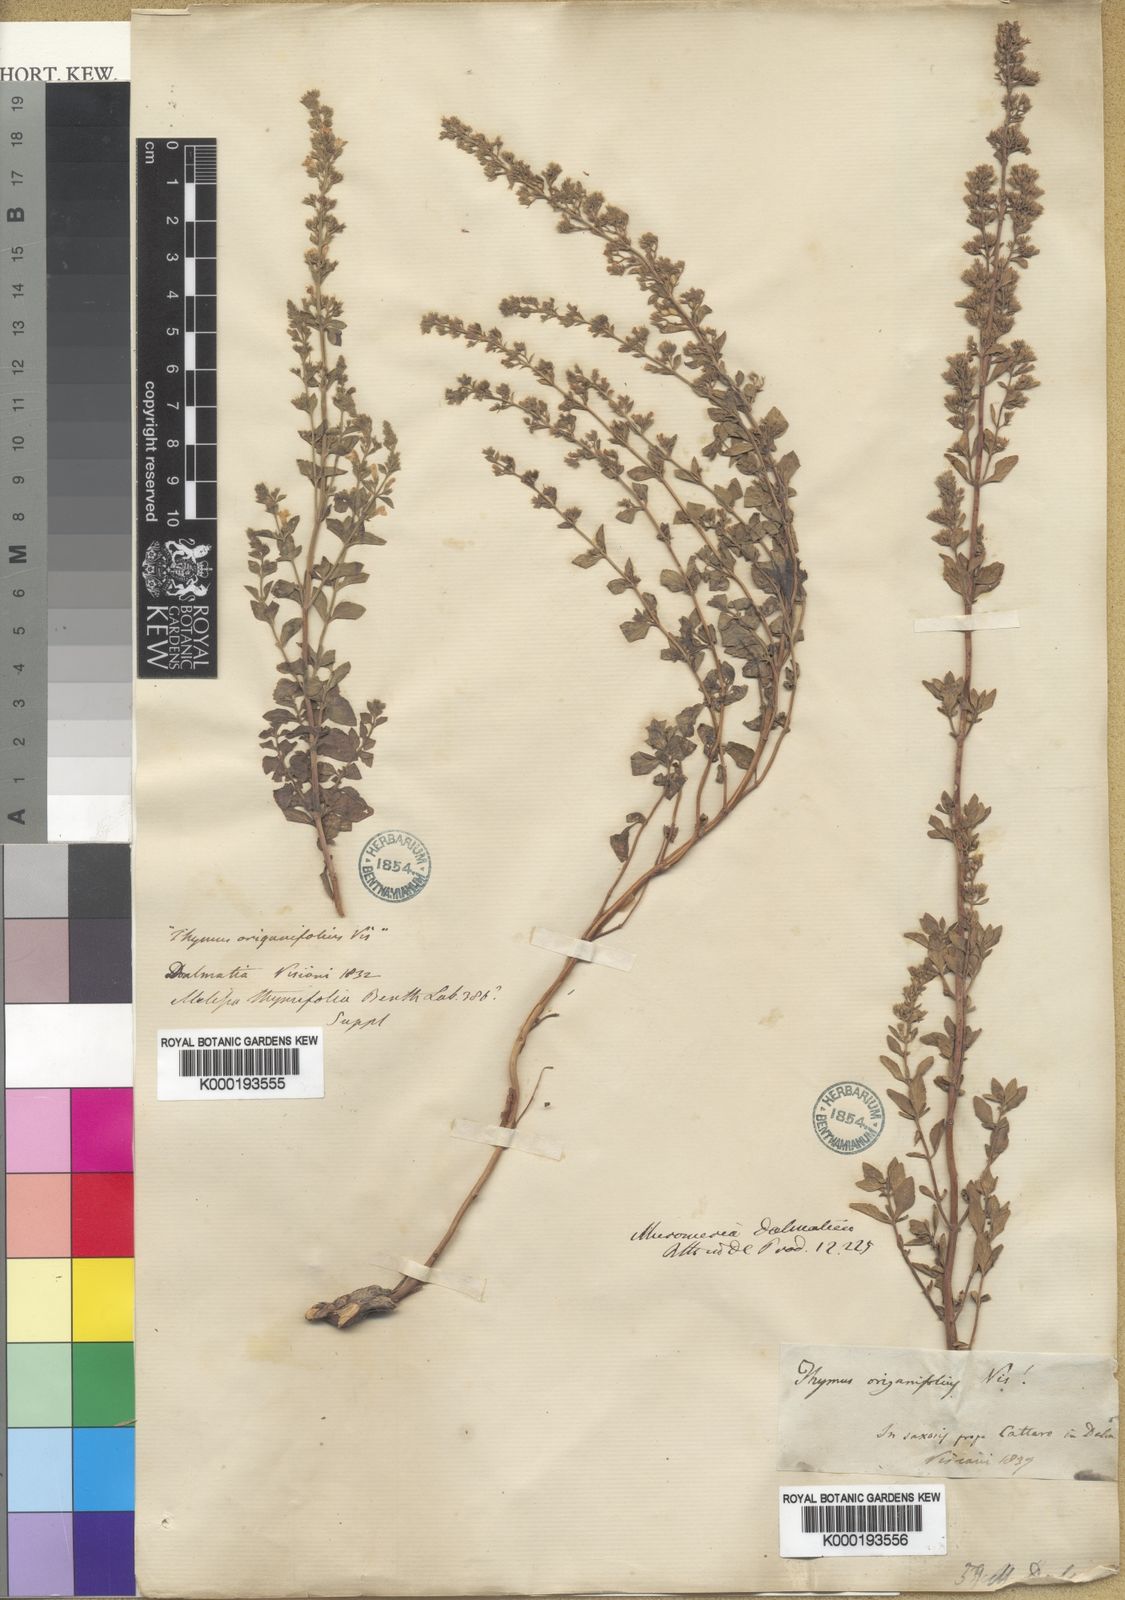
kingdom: Plantae
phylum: Tracheophyta
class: Magnoliopsida
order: Lamiales
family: Lamiaceae
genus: Clinopodium
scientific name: Clinopodium dalmaticum
